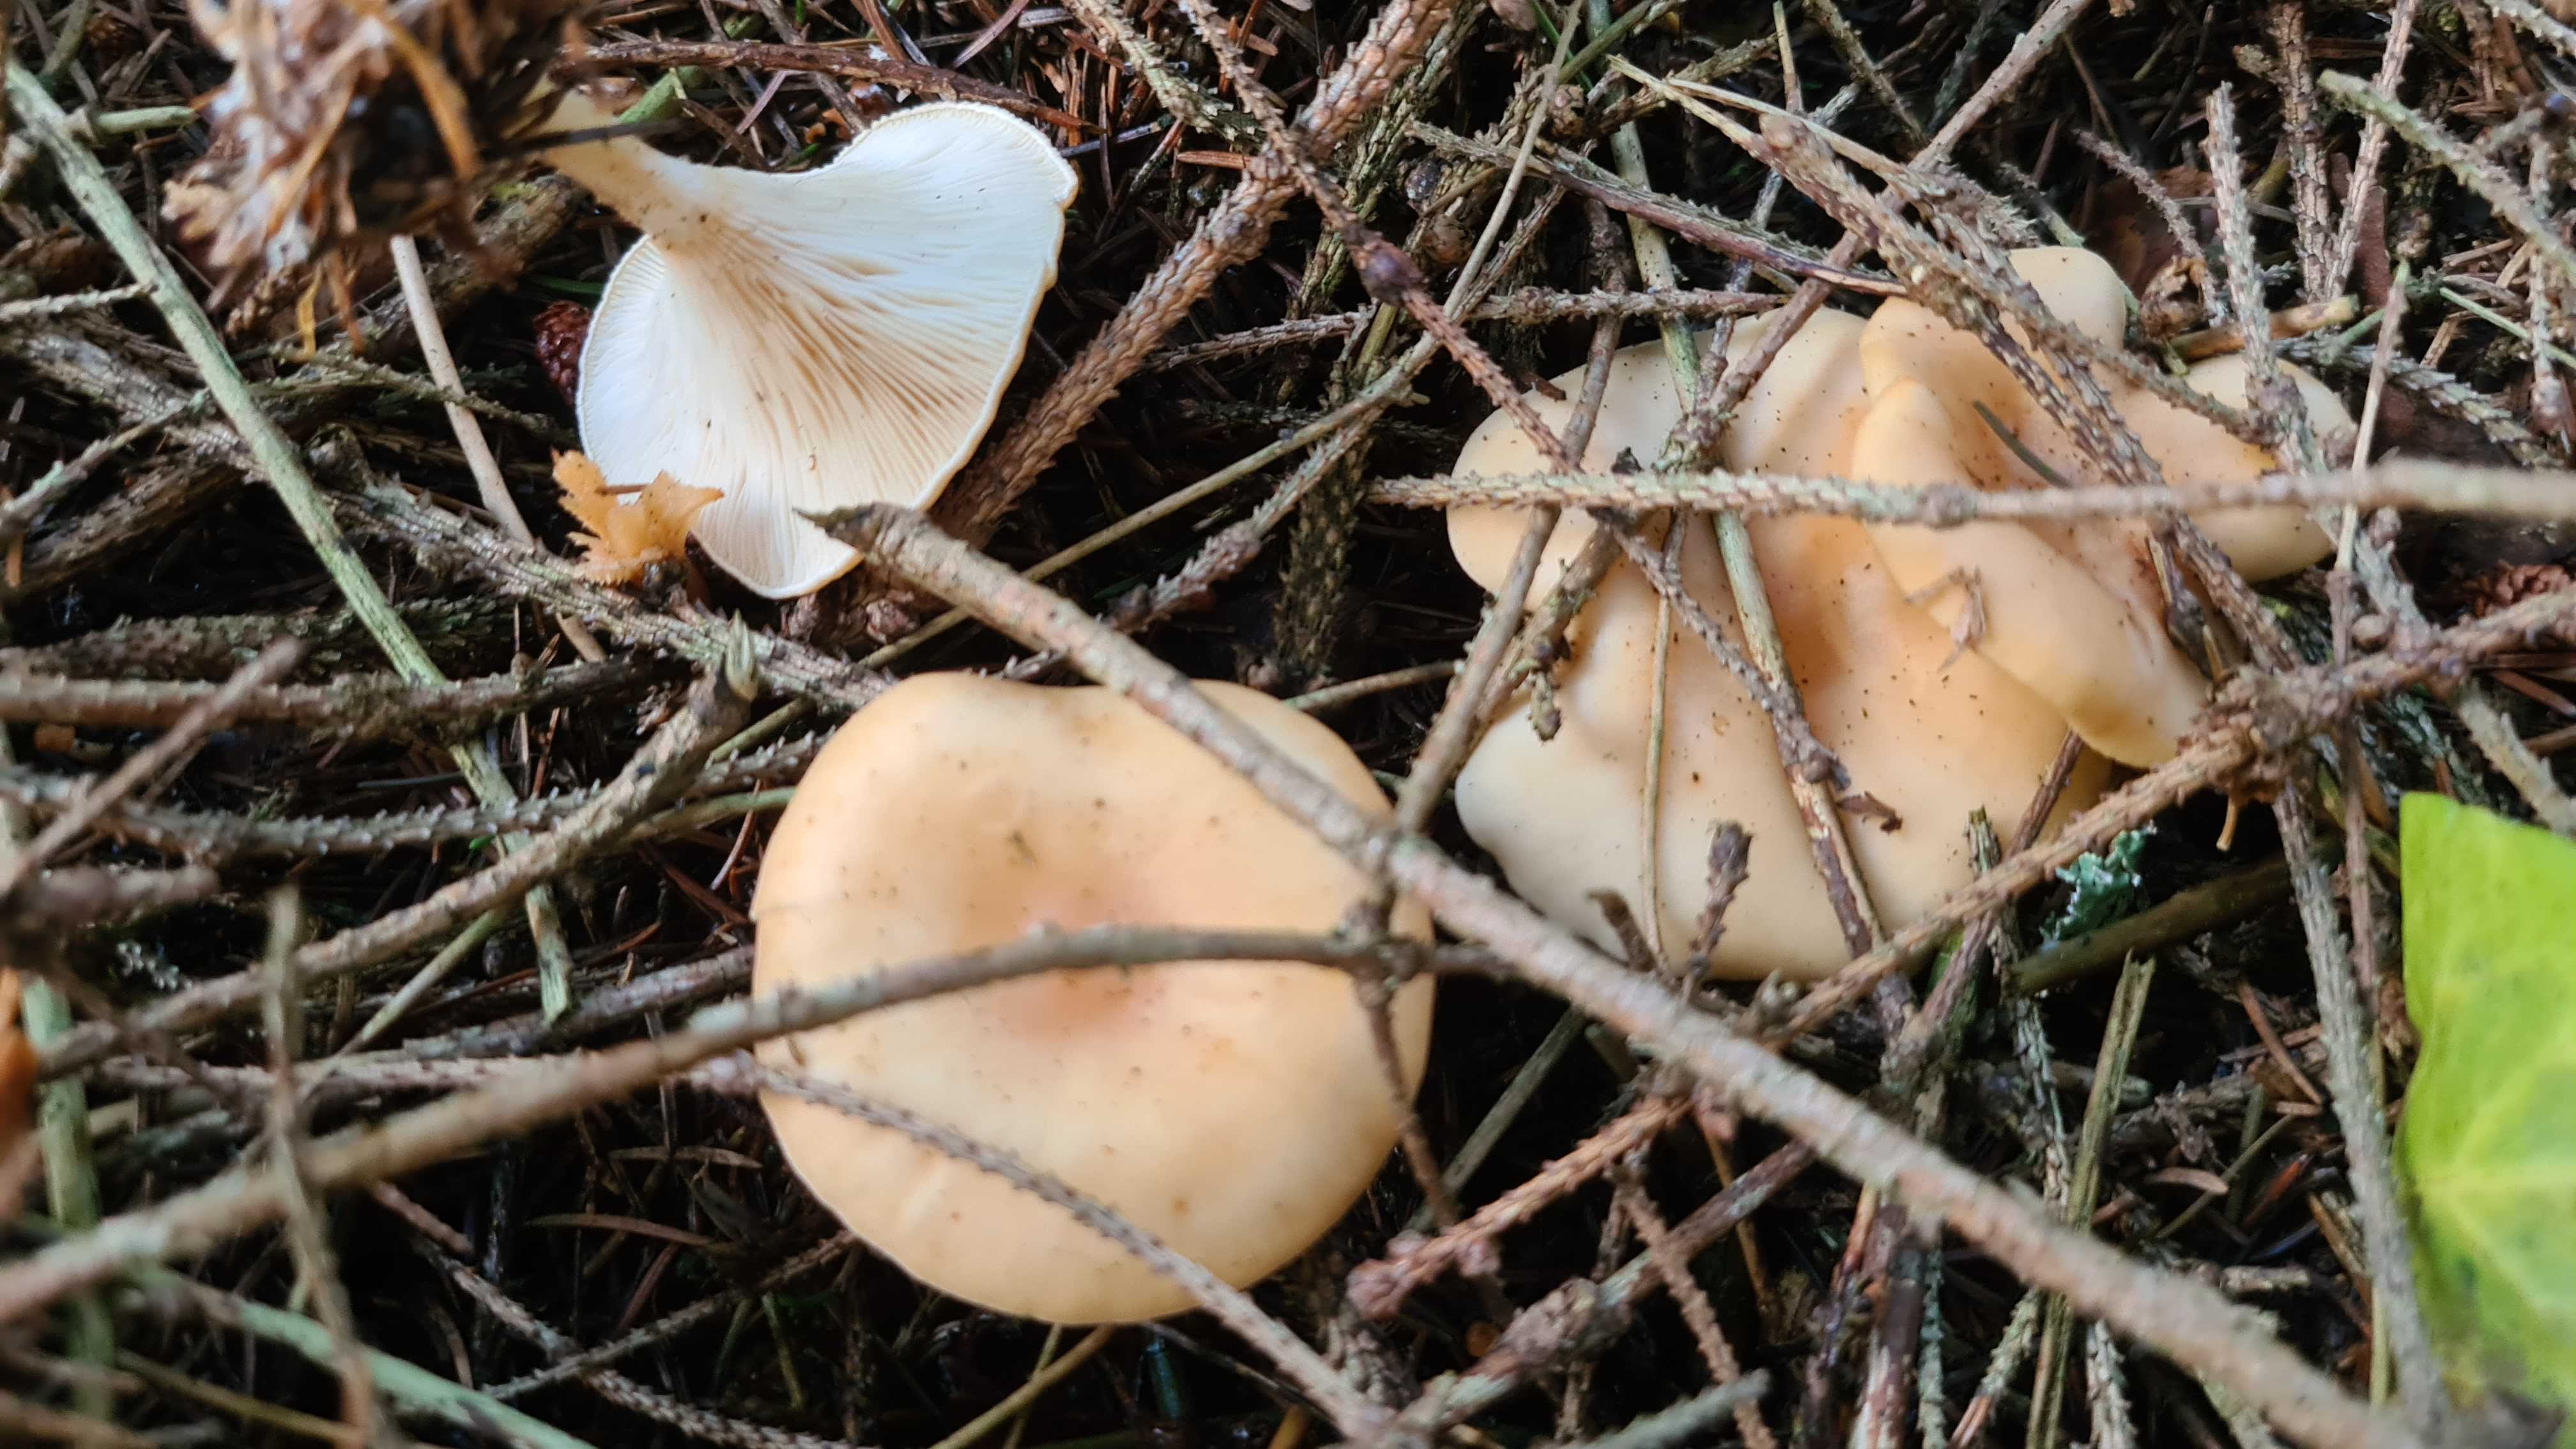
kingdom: Fungi
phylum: Basidiomycota
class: Agaricomycetes
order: Agaricales
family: Tricholomataceae
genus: Paralepista
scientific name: Paralepista flaccida
